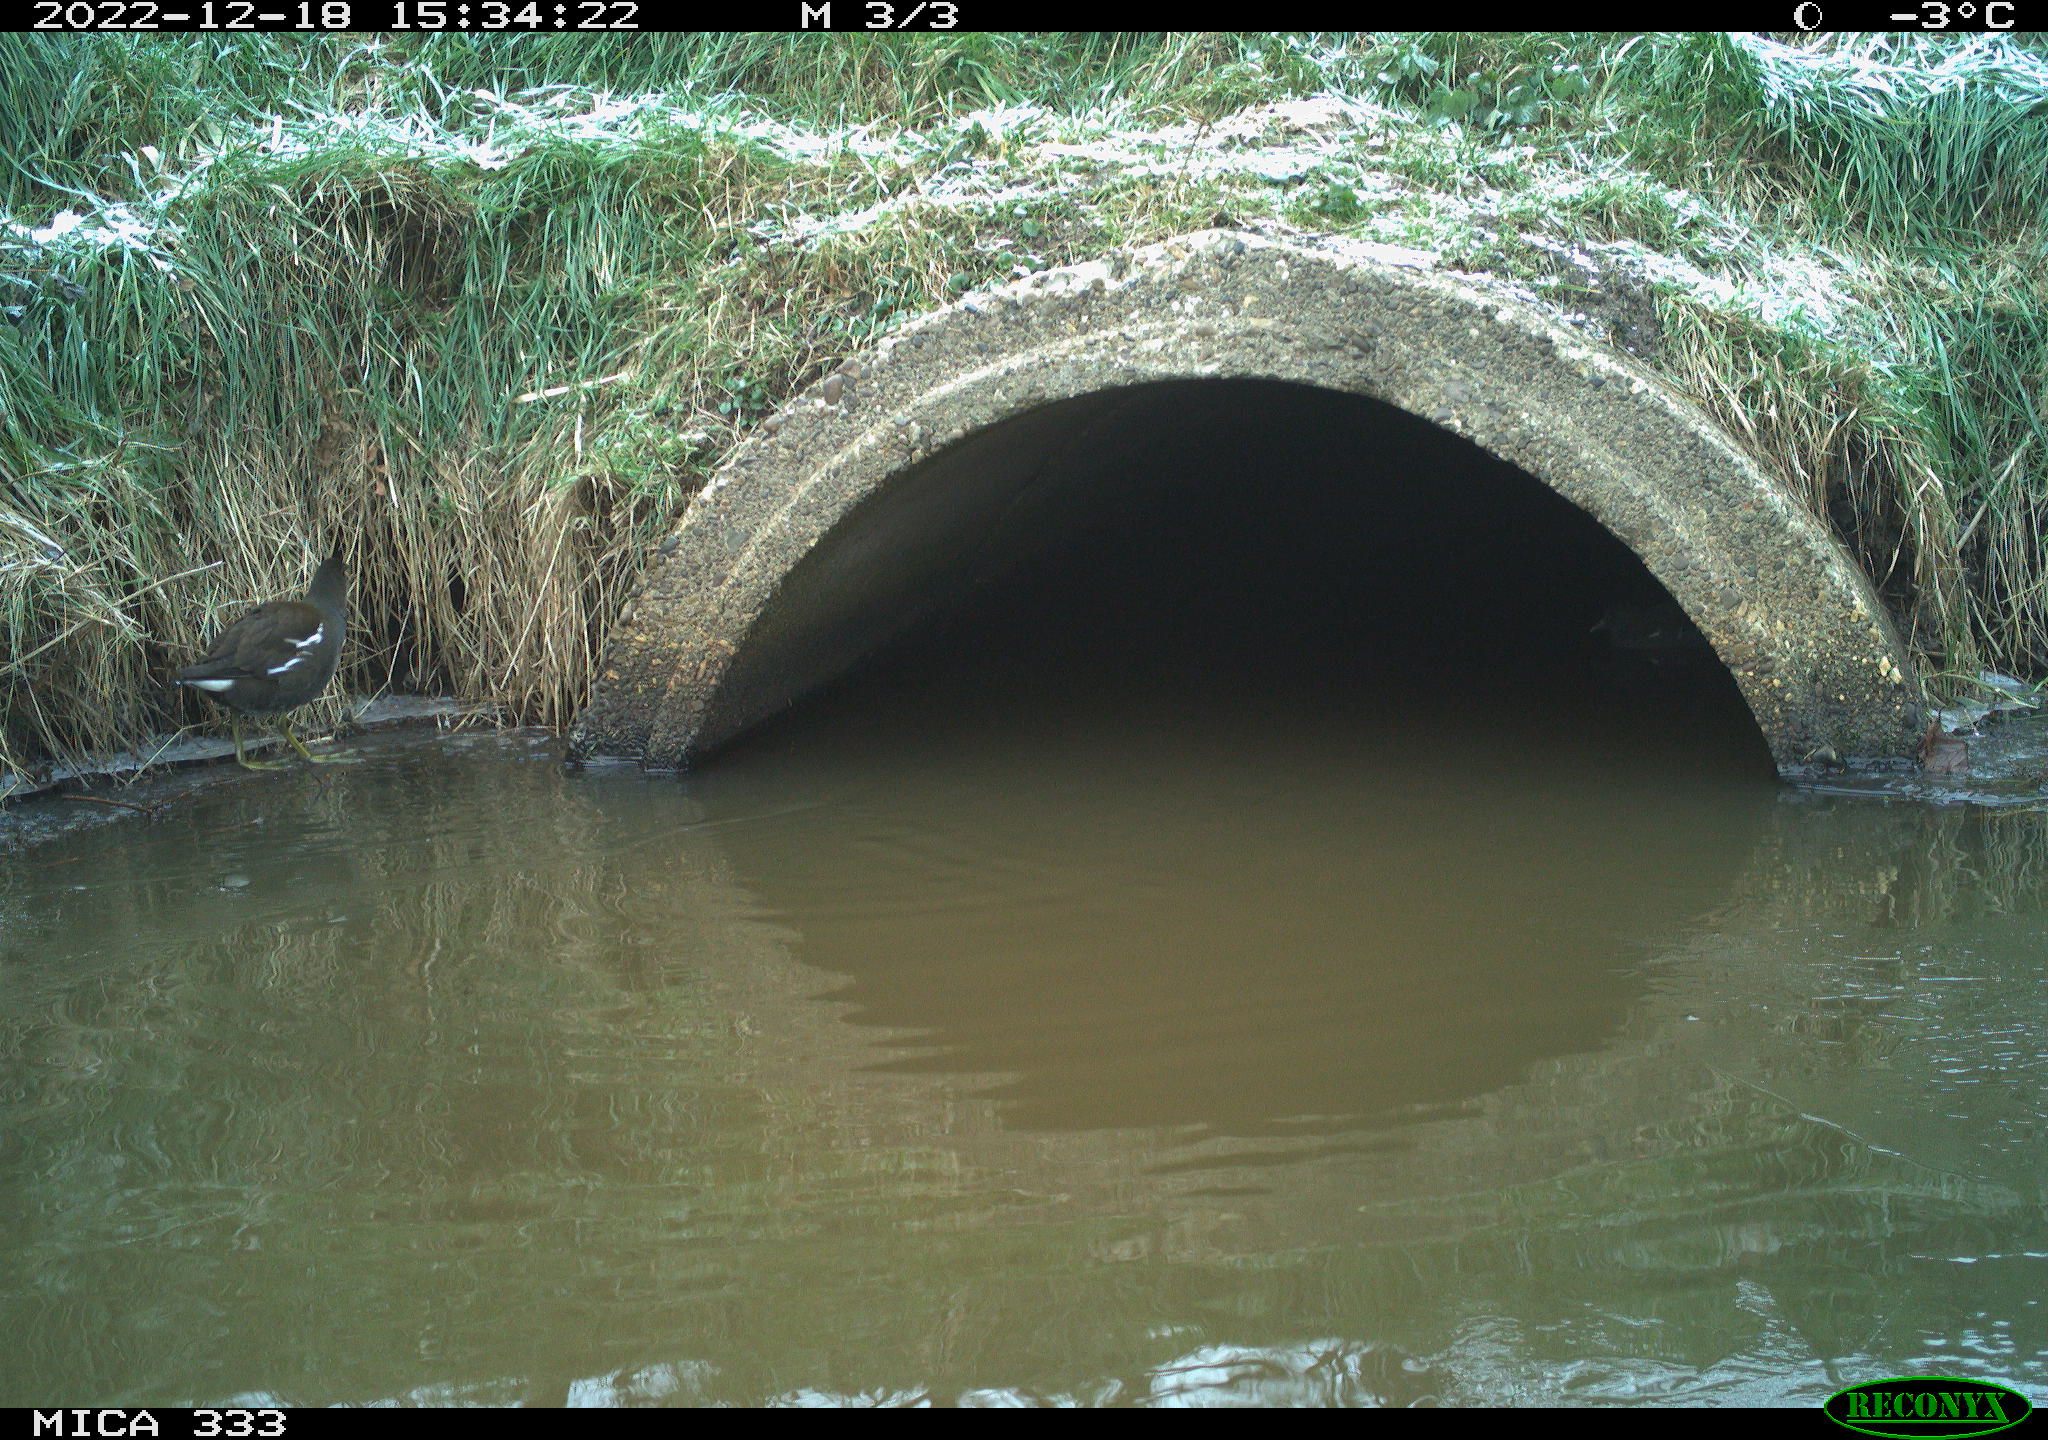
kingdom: Animalia
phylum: Chordata
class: Aves
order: Gruiformes
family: Rallidae
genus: Gallinula
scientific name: Gallinula chloropus
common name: Common moorhen
